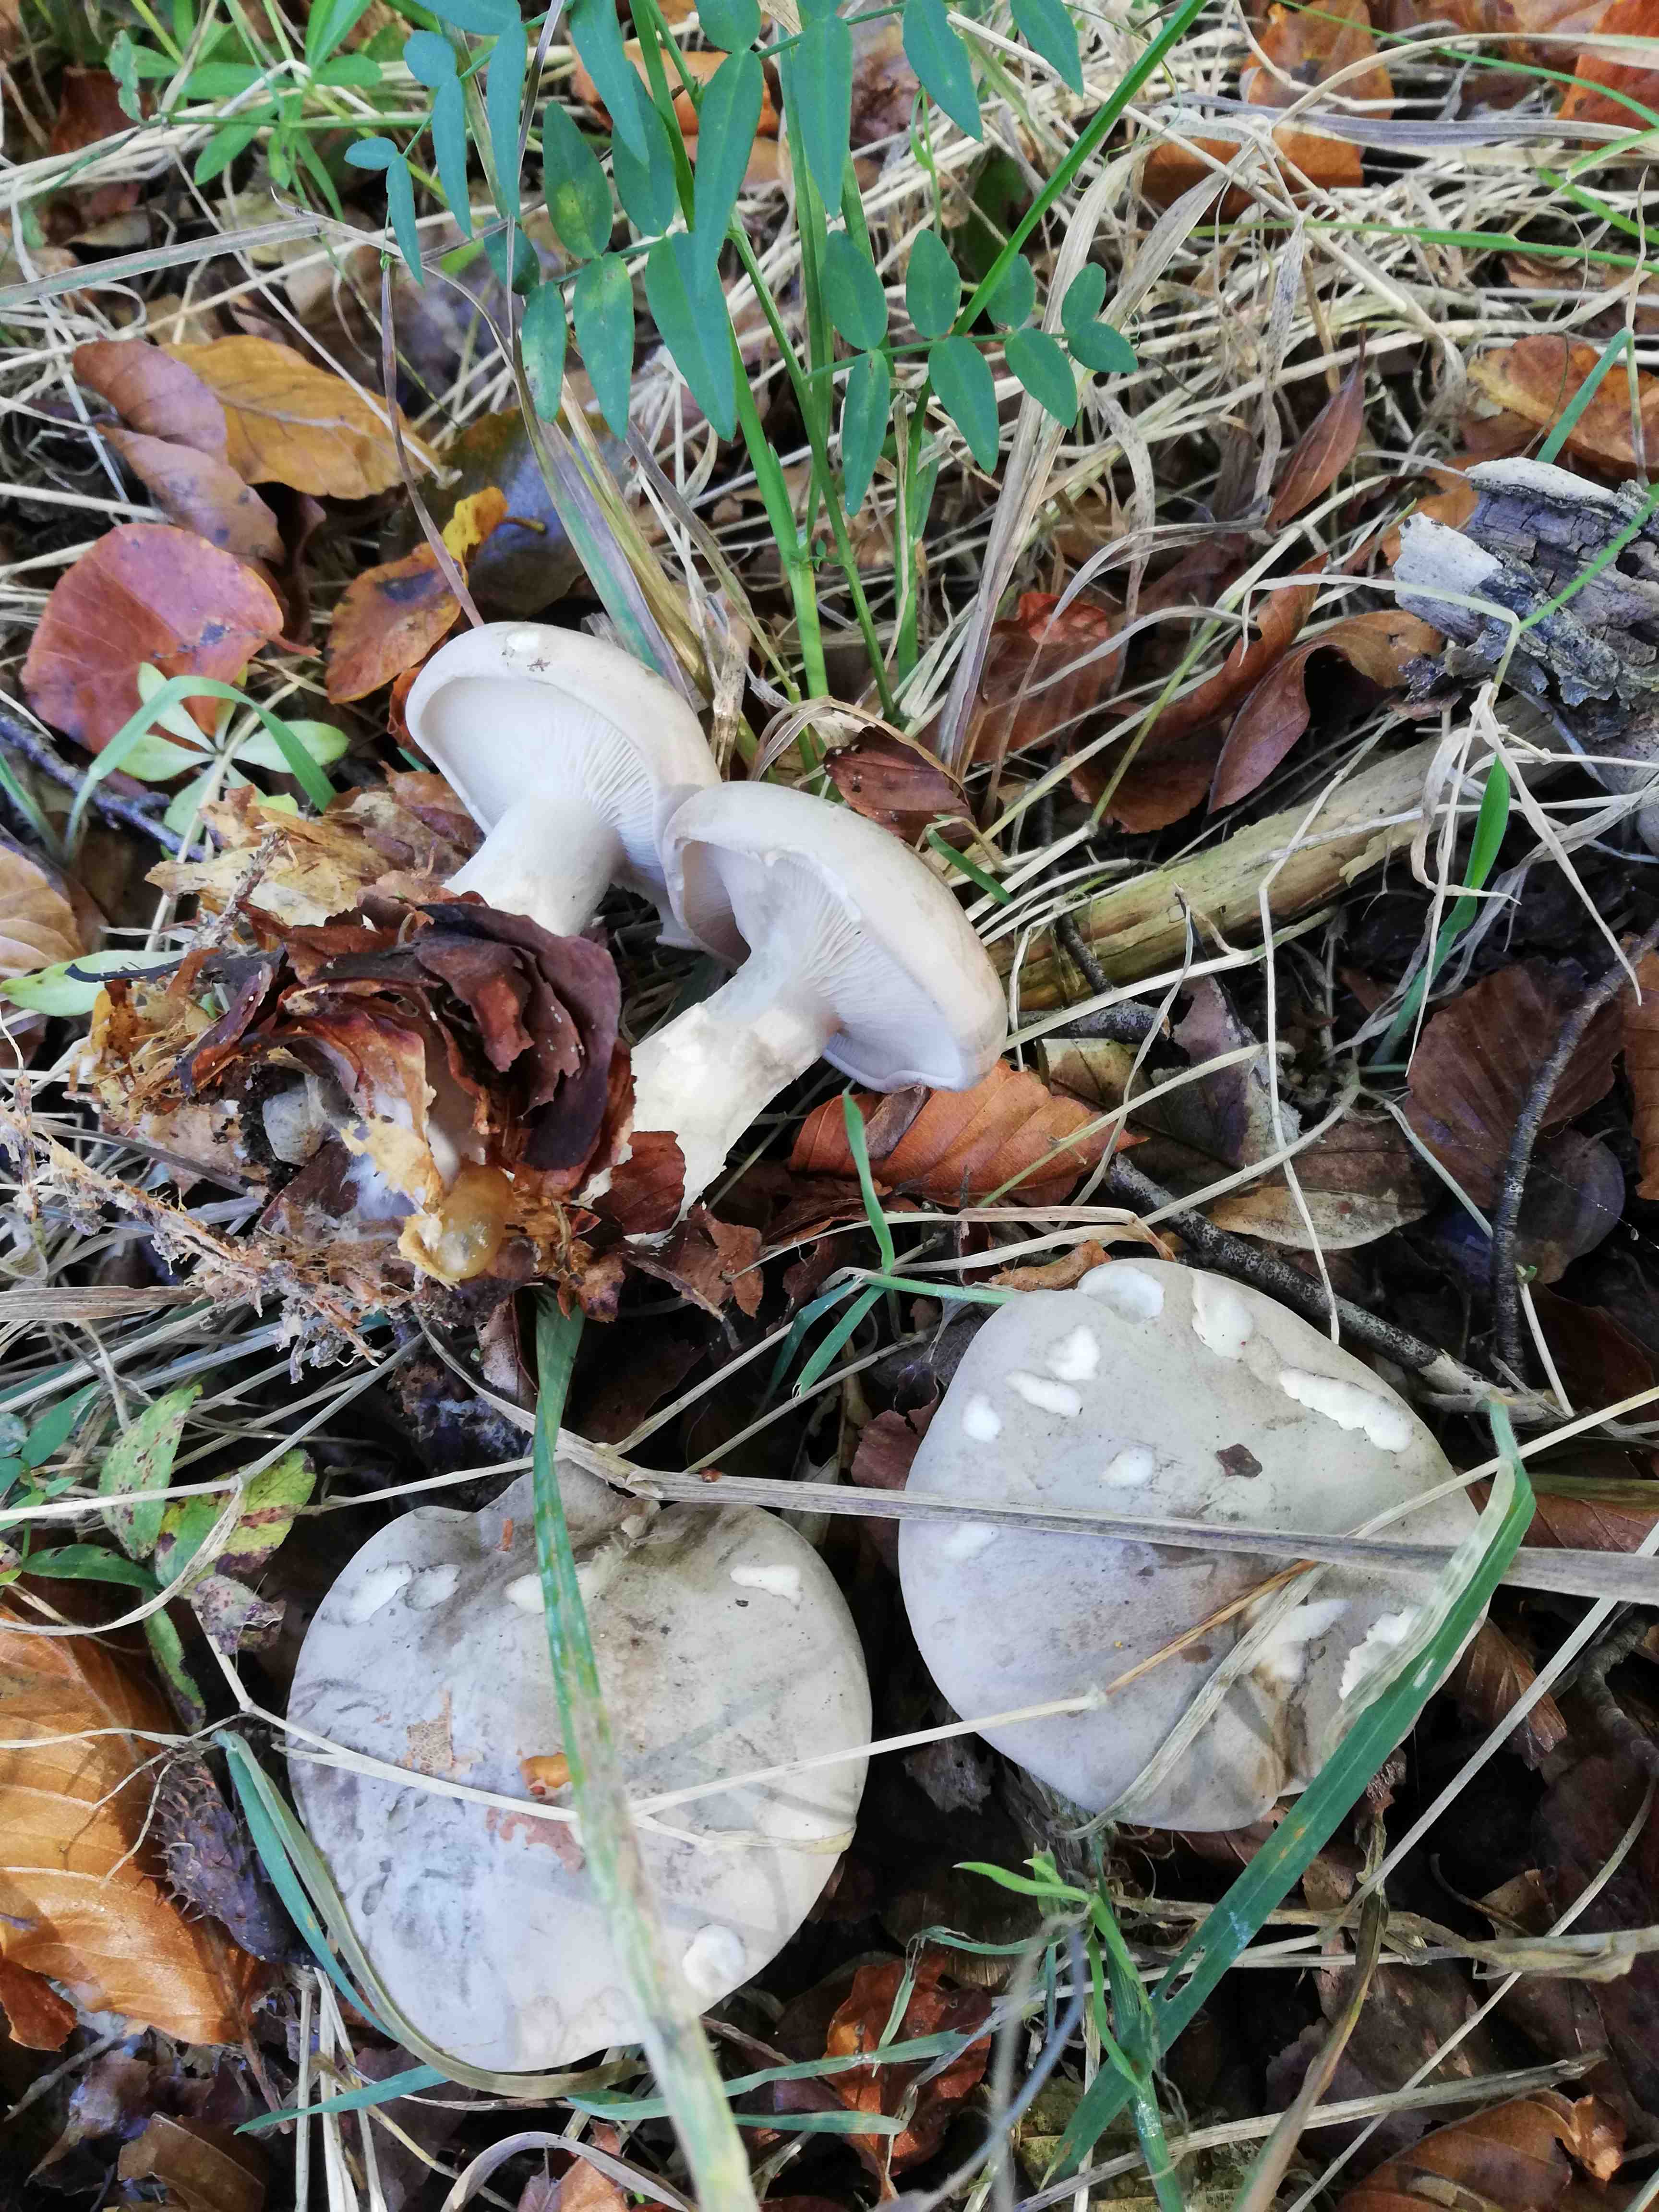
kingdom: Fungi
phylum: Basidiomycota
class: Agaricomycetes
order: Agaricales
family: Tricholomataceae
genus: Clitocybe
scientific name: Clitocybe nebularis
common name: tåge-tragthat
